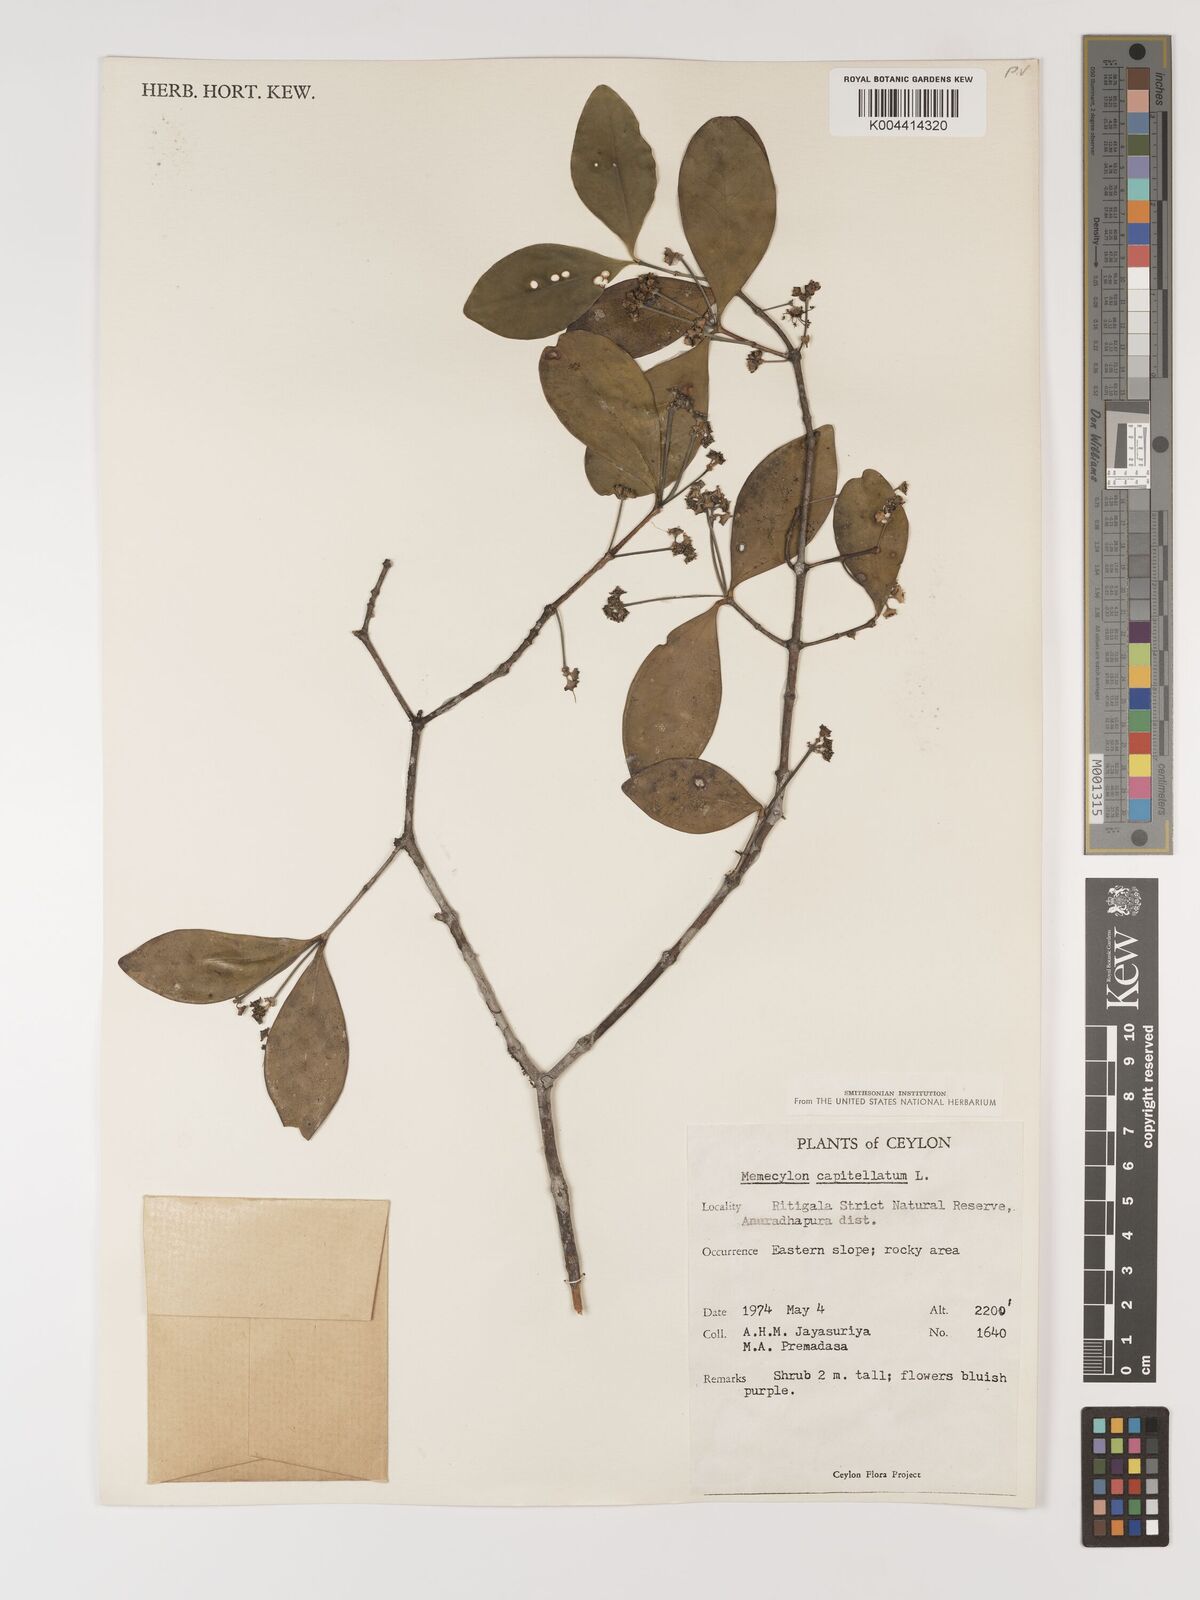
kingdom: Plantae
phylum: Tracheophyta
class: Magnoliopsida
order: Myrtales
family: Melastomataceae
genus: Memecylon
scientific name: Memecylon capitellatum
